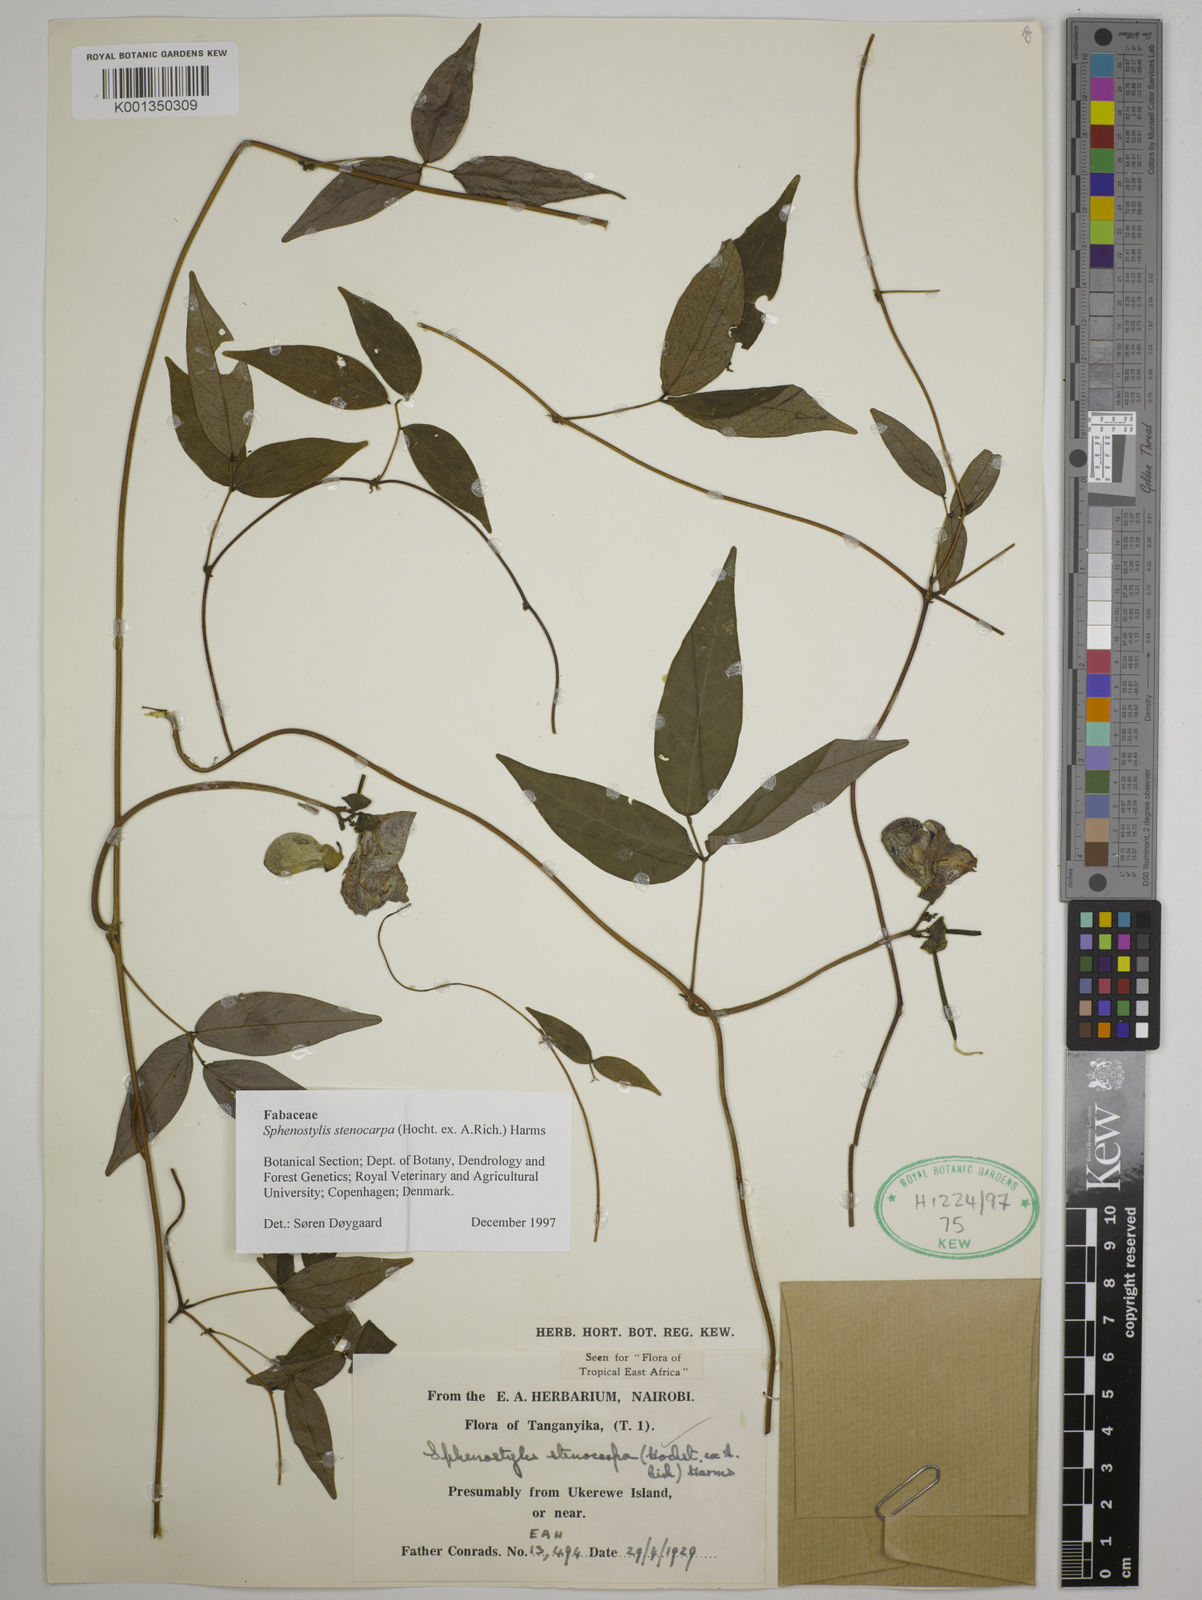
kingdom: Plantae
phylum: Tracheophyta
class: Magnoliopsida
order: Fabales
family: Fabaceae
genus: Sphenostylis
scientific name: Sphenostylis stenocarpa
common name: Yam-pea
